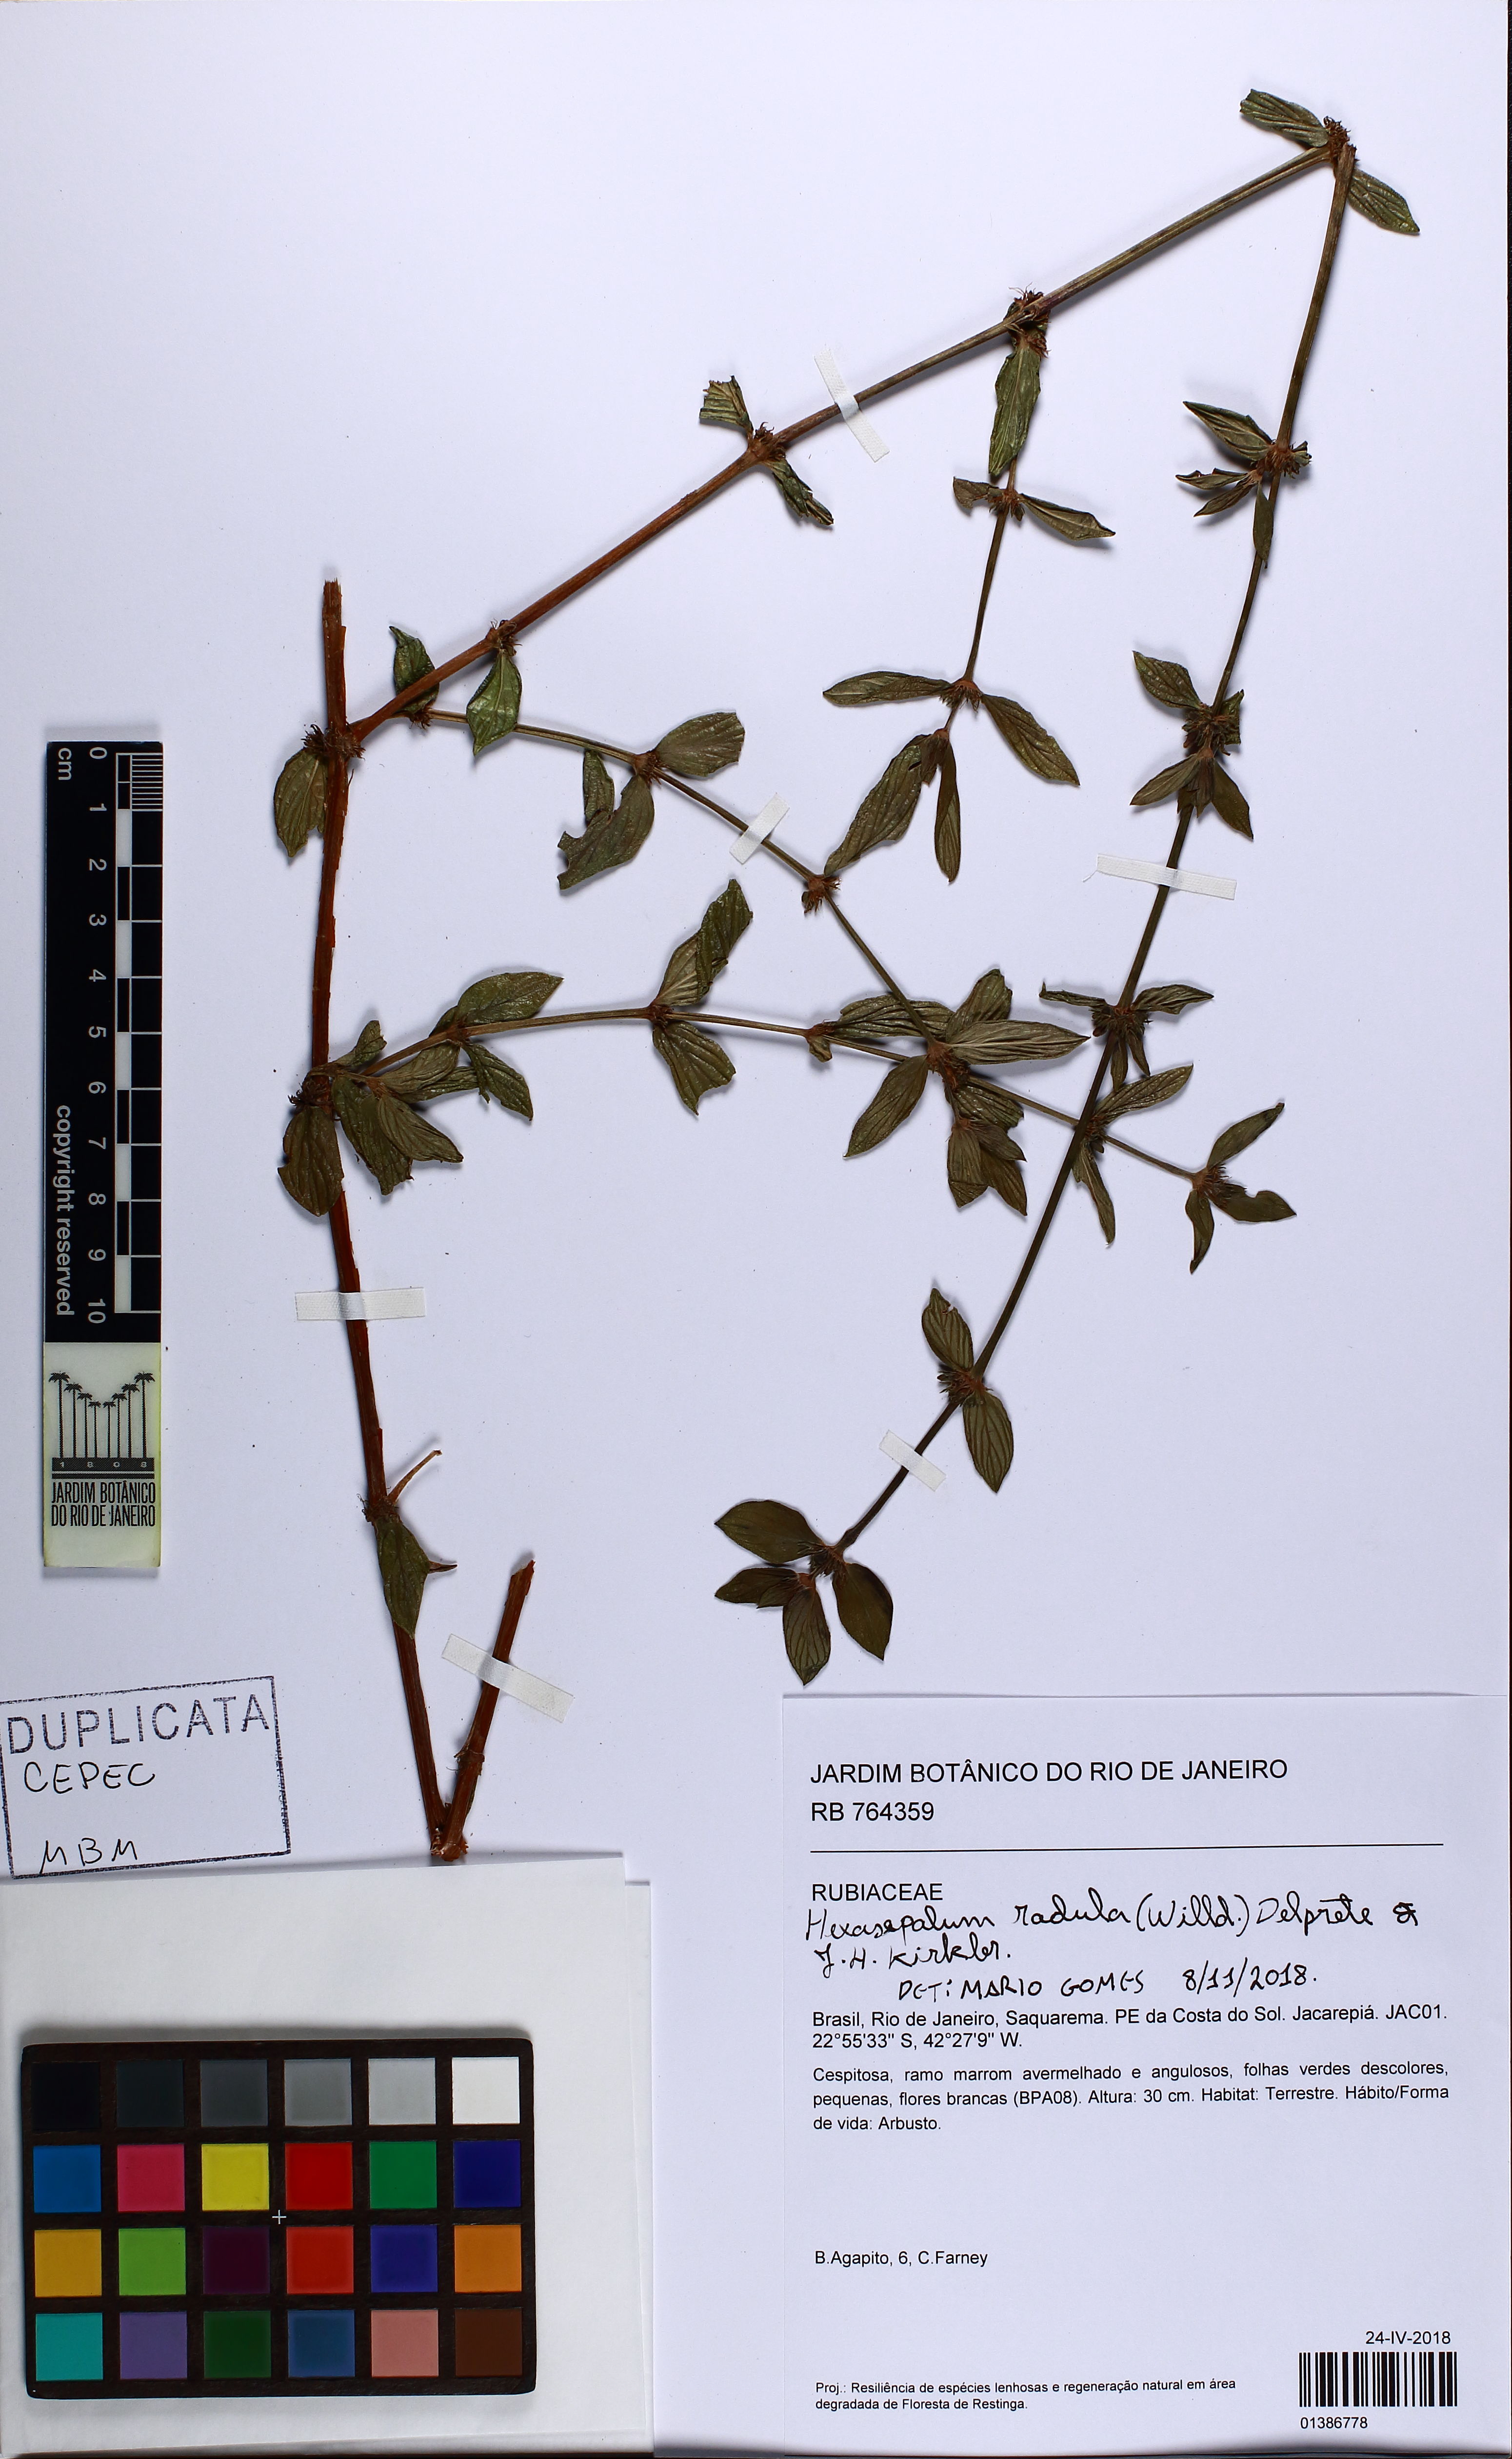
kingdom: Plantae
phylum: Tracheophyta
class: Magnoliopsida
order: Gentianales
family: Rubiaceae
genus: Hexasepalum
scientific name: Hexasepalum radulum
